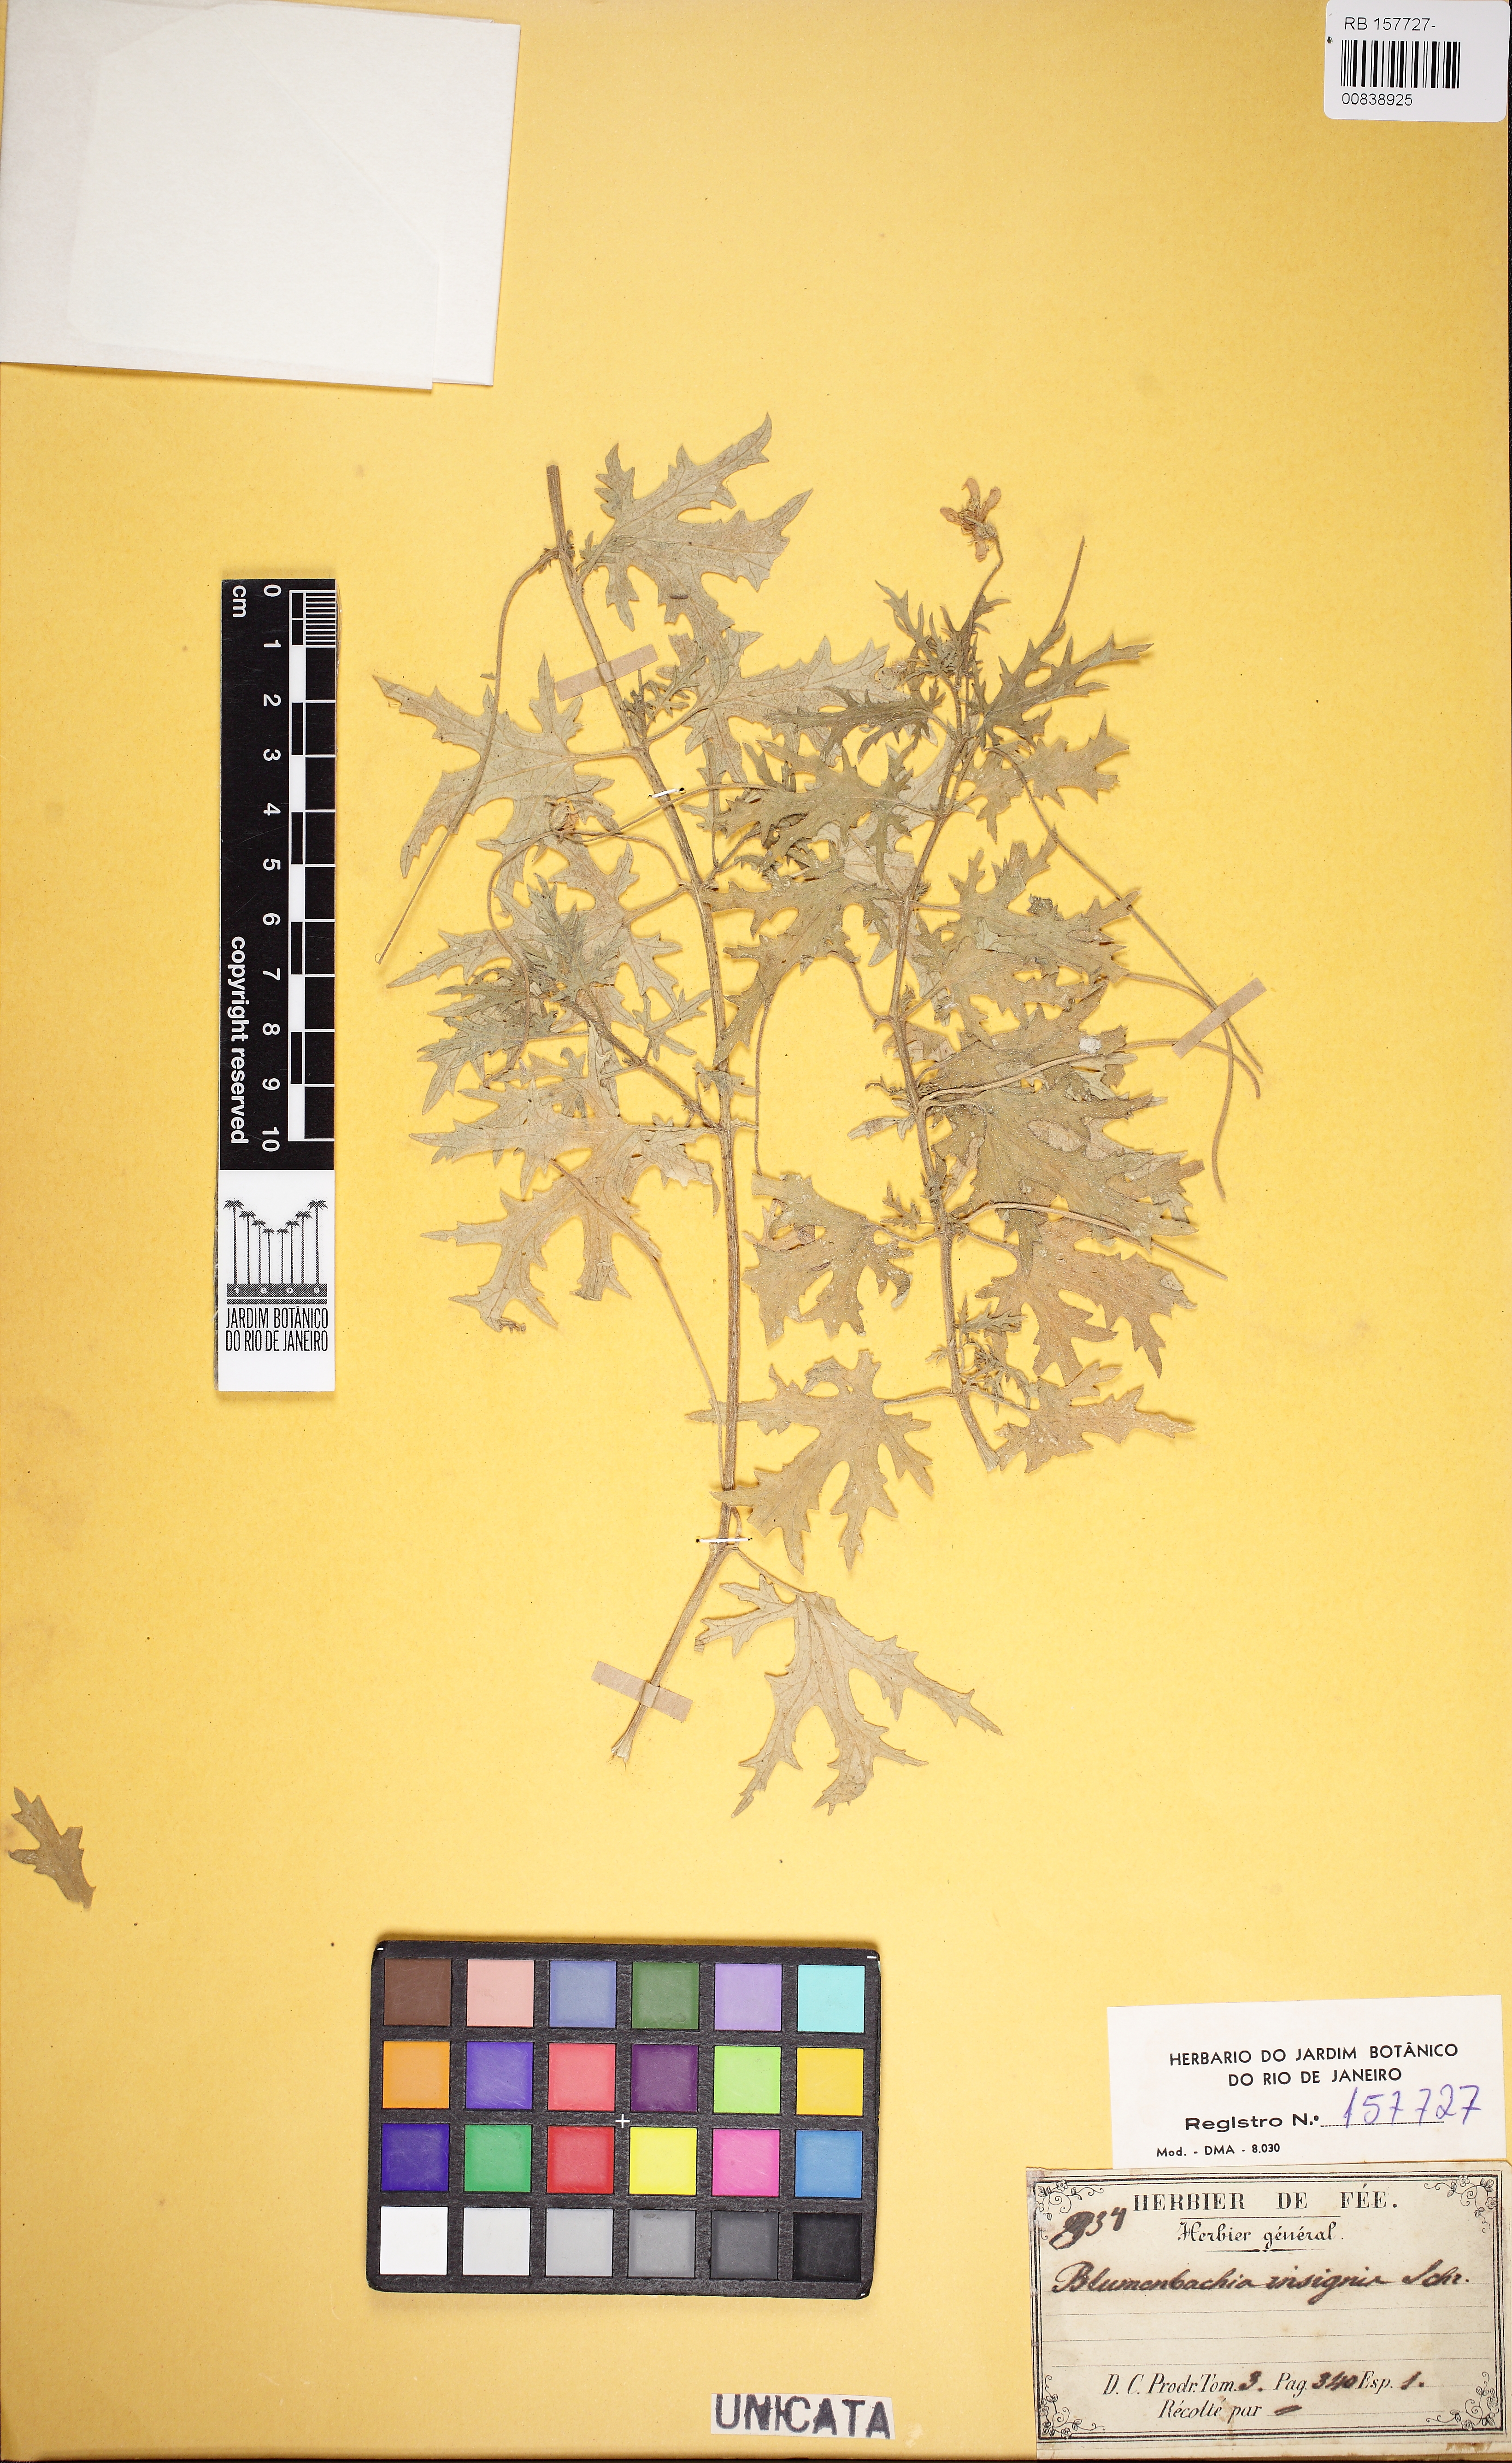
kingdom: Plantae
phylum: Tracheophyta
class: Magnoliopsida
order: Cornales
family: Loasaceae
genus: Blumenbachia
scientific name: Blumenbachia insignis
